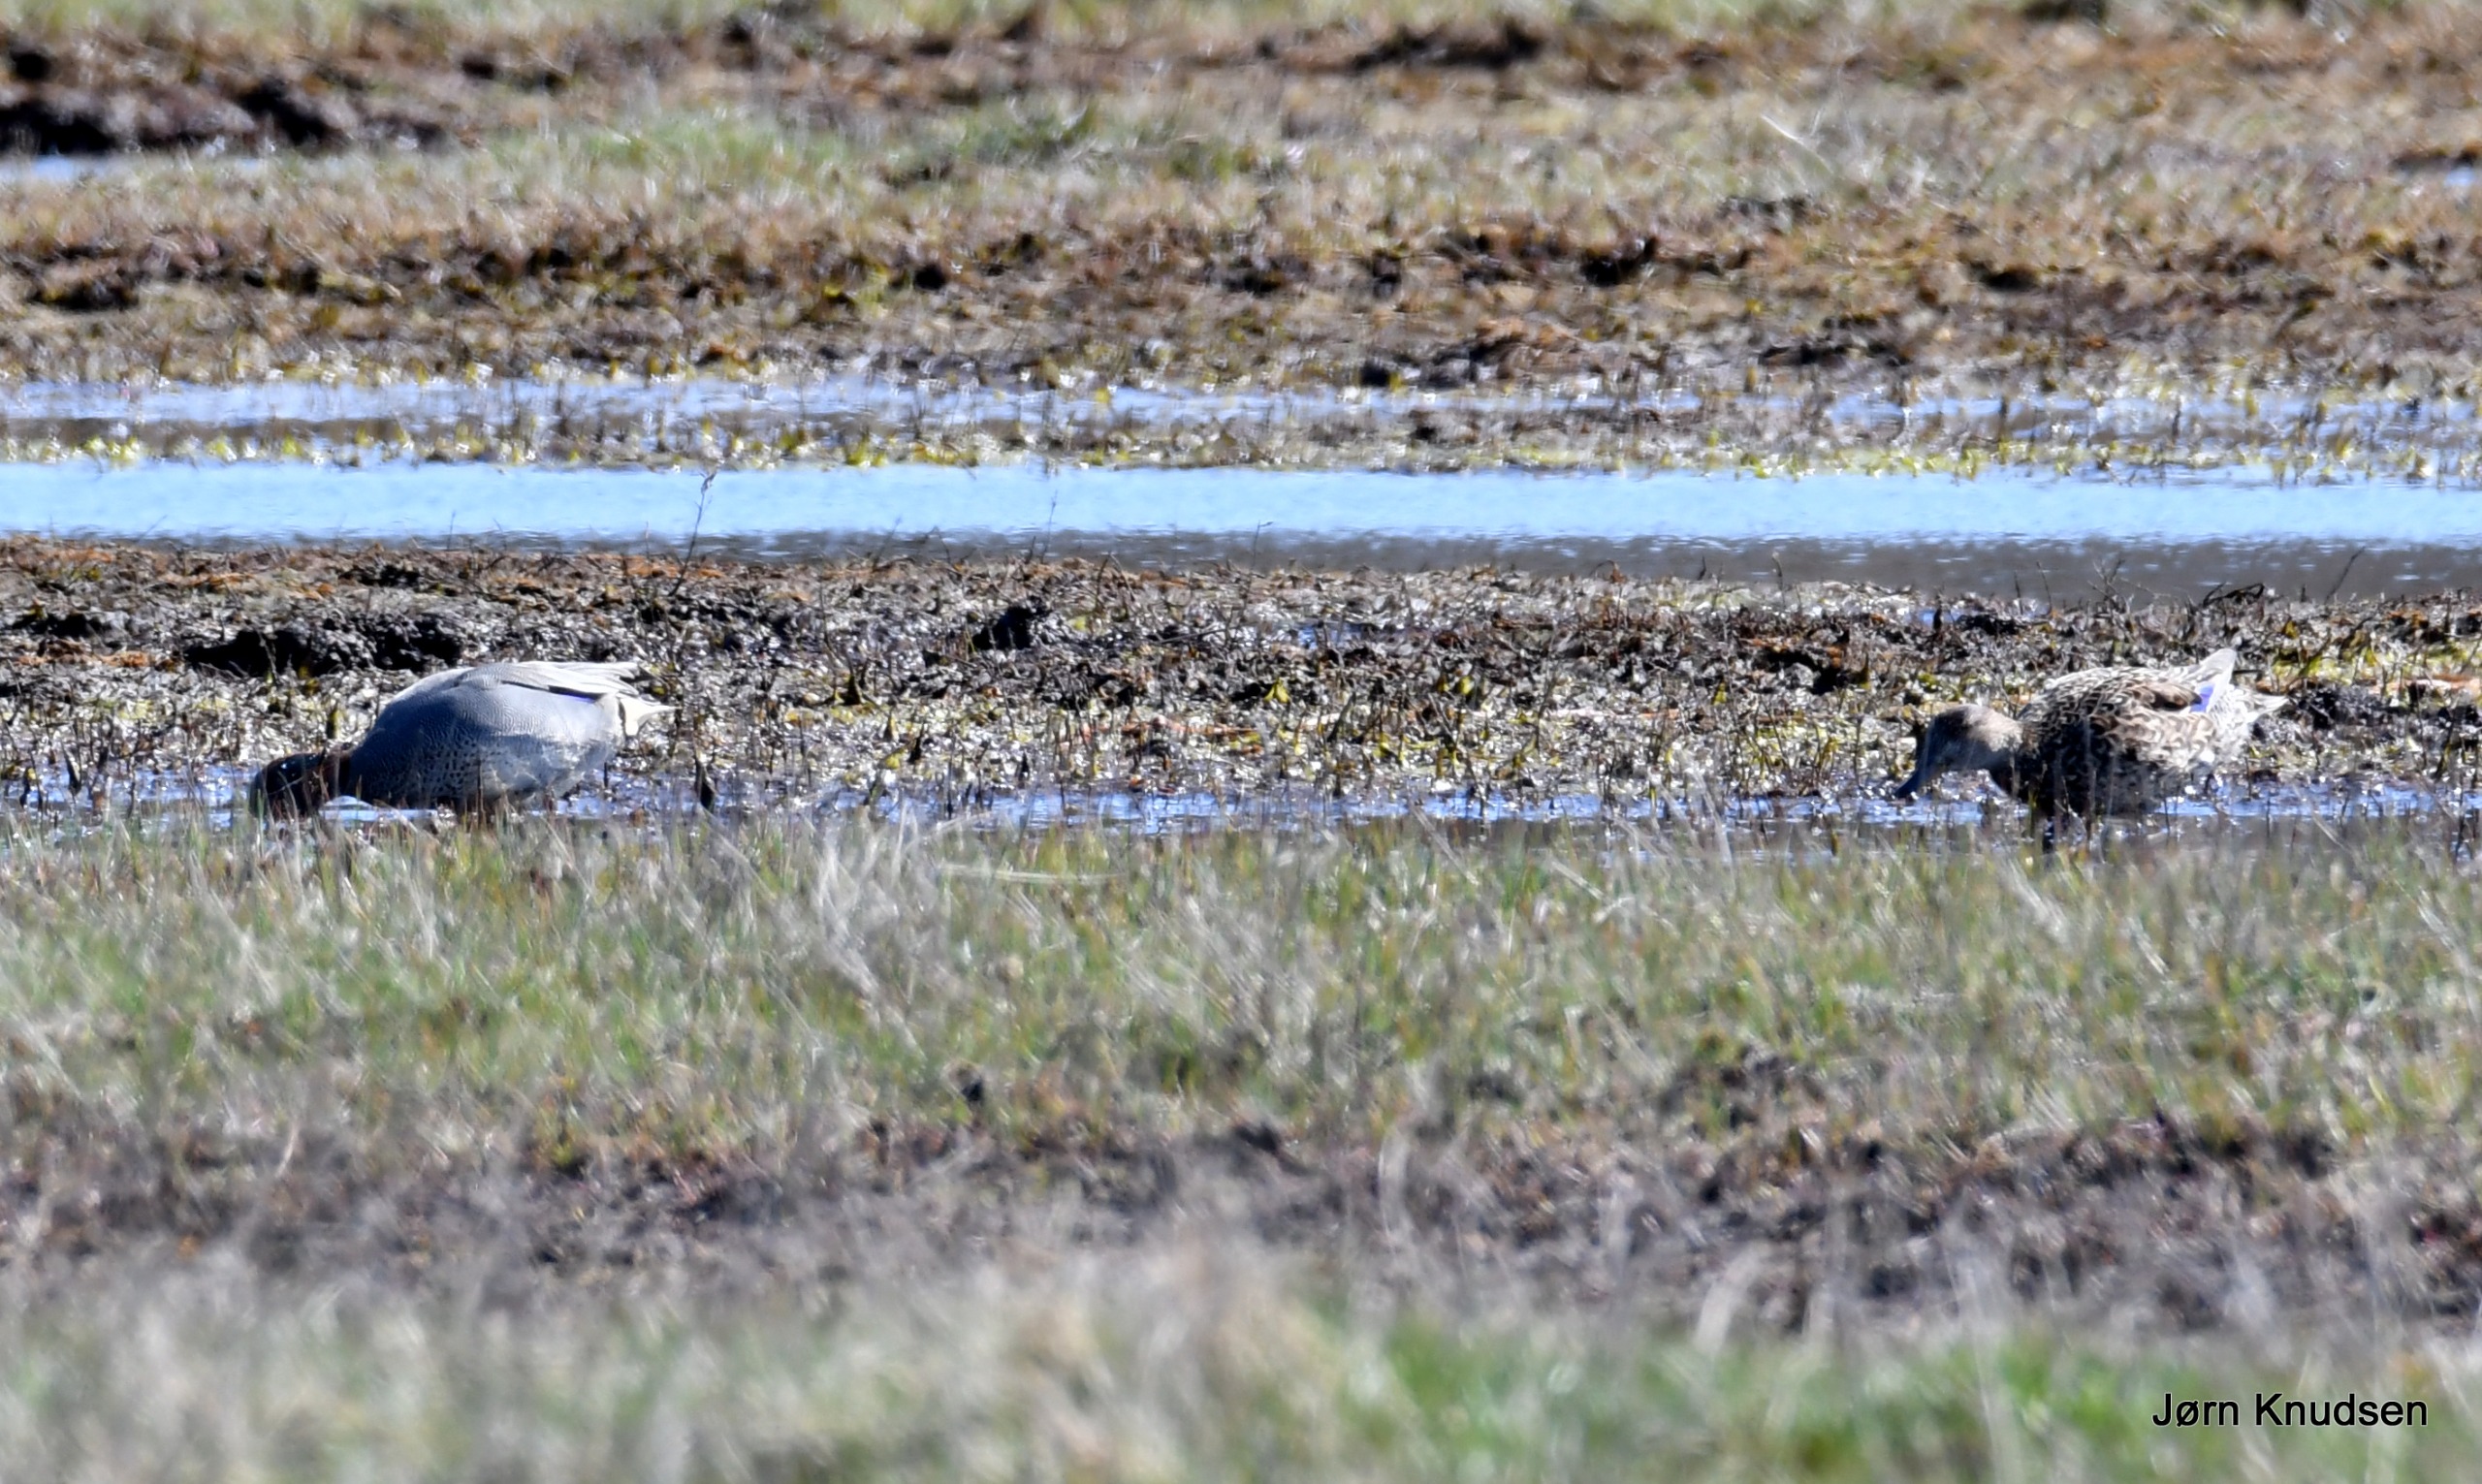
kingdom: Animalia
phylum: Chordata
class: Aves
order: Anseriformes
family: Anatidae
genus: Anas
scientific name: Anas crecca
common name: Krikand
